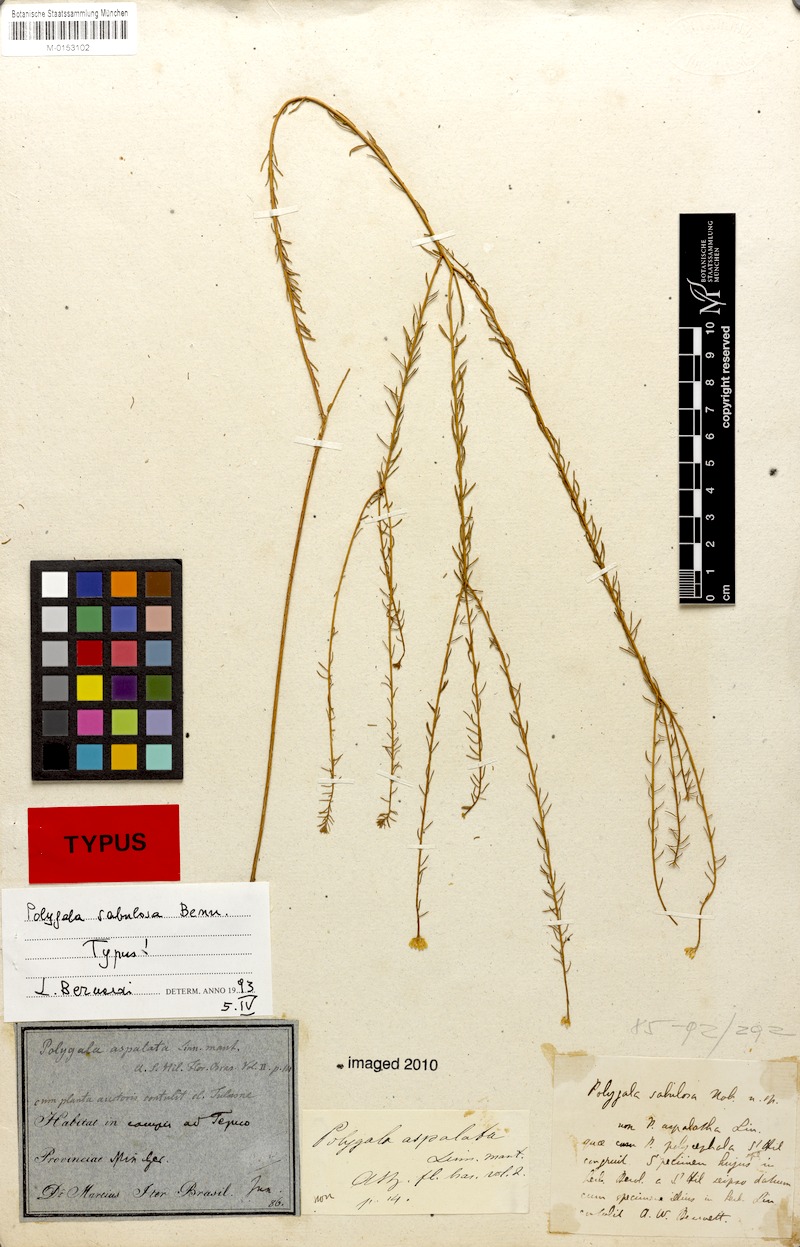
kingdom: Plantae
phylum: Tracheophyta
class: Magnoliopsida
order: Fabales
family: Polygalaceae
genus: Polygala
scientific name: Polygala sellowiana
